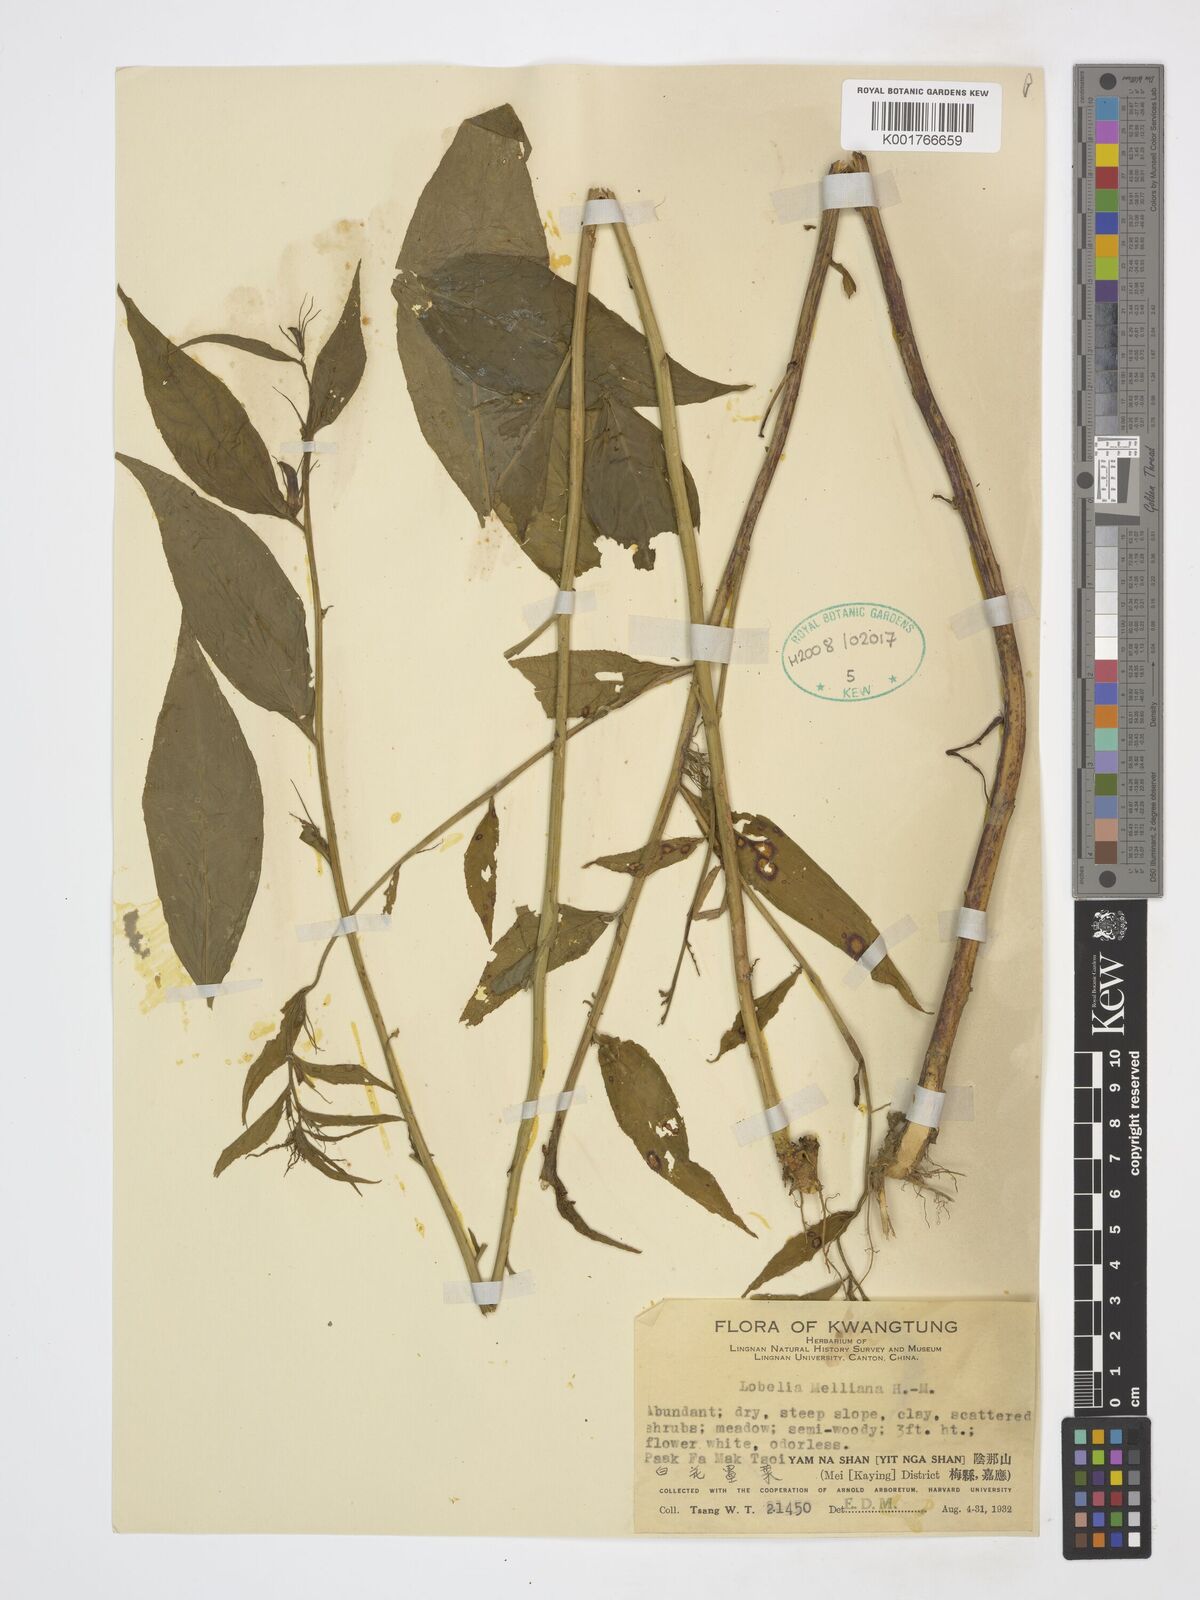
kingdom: Plantae
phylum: Tracheophyta
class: Magnoliopsida
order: Asterales
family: Campanulaceae
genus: Lobelia
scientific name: Lobelia melliana
